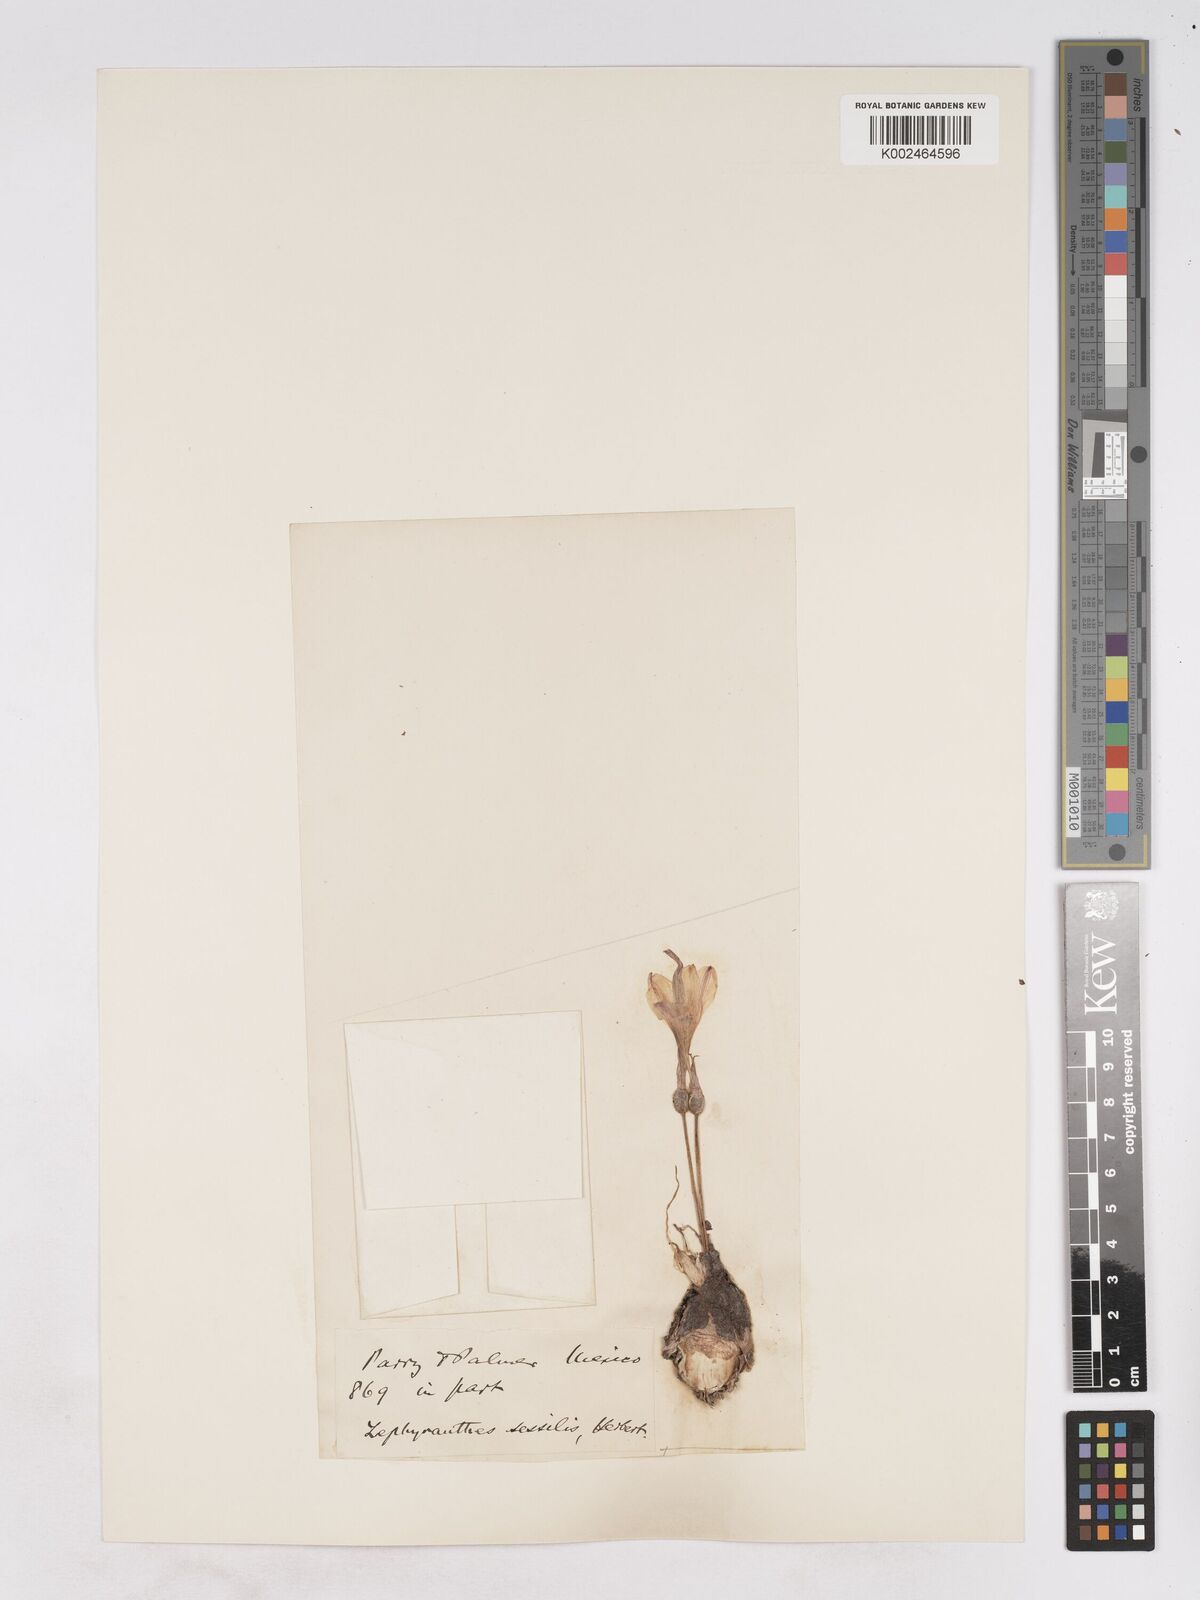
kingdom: Plantae
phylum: Tracheophyta
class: Liliopsida
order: Asparagales
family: Amaryllidaceae
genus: Zephyranthes
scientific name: Zephyranthes minuta
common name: Pink rain lily
